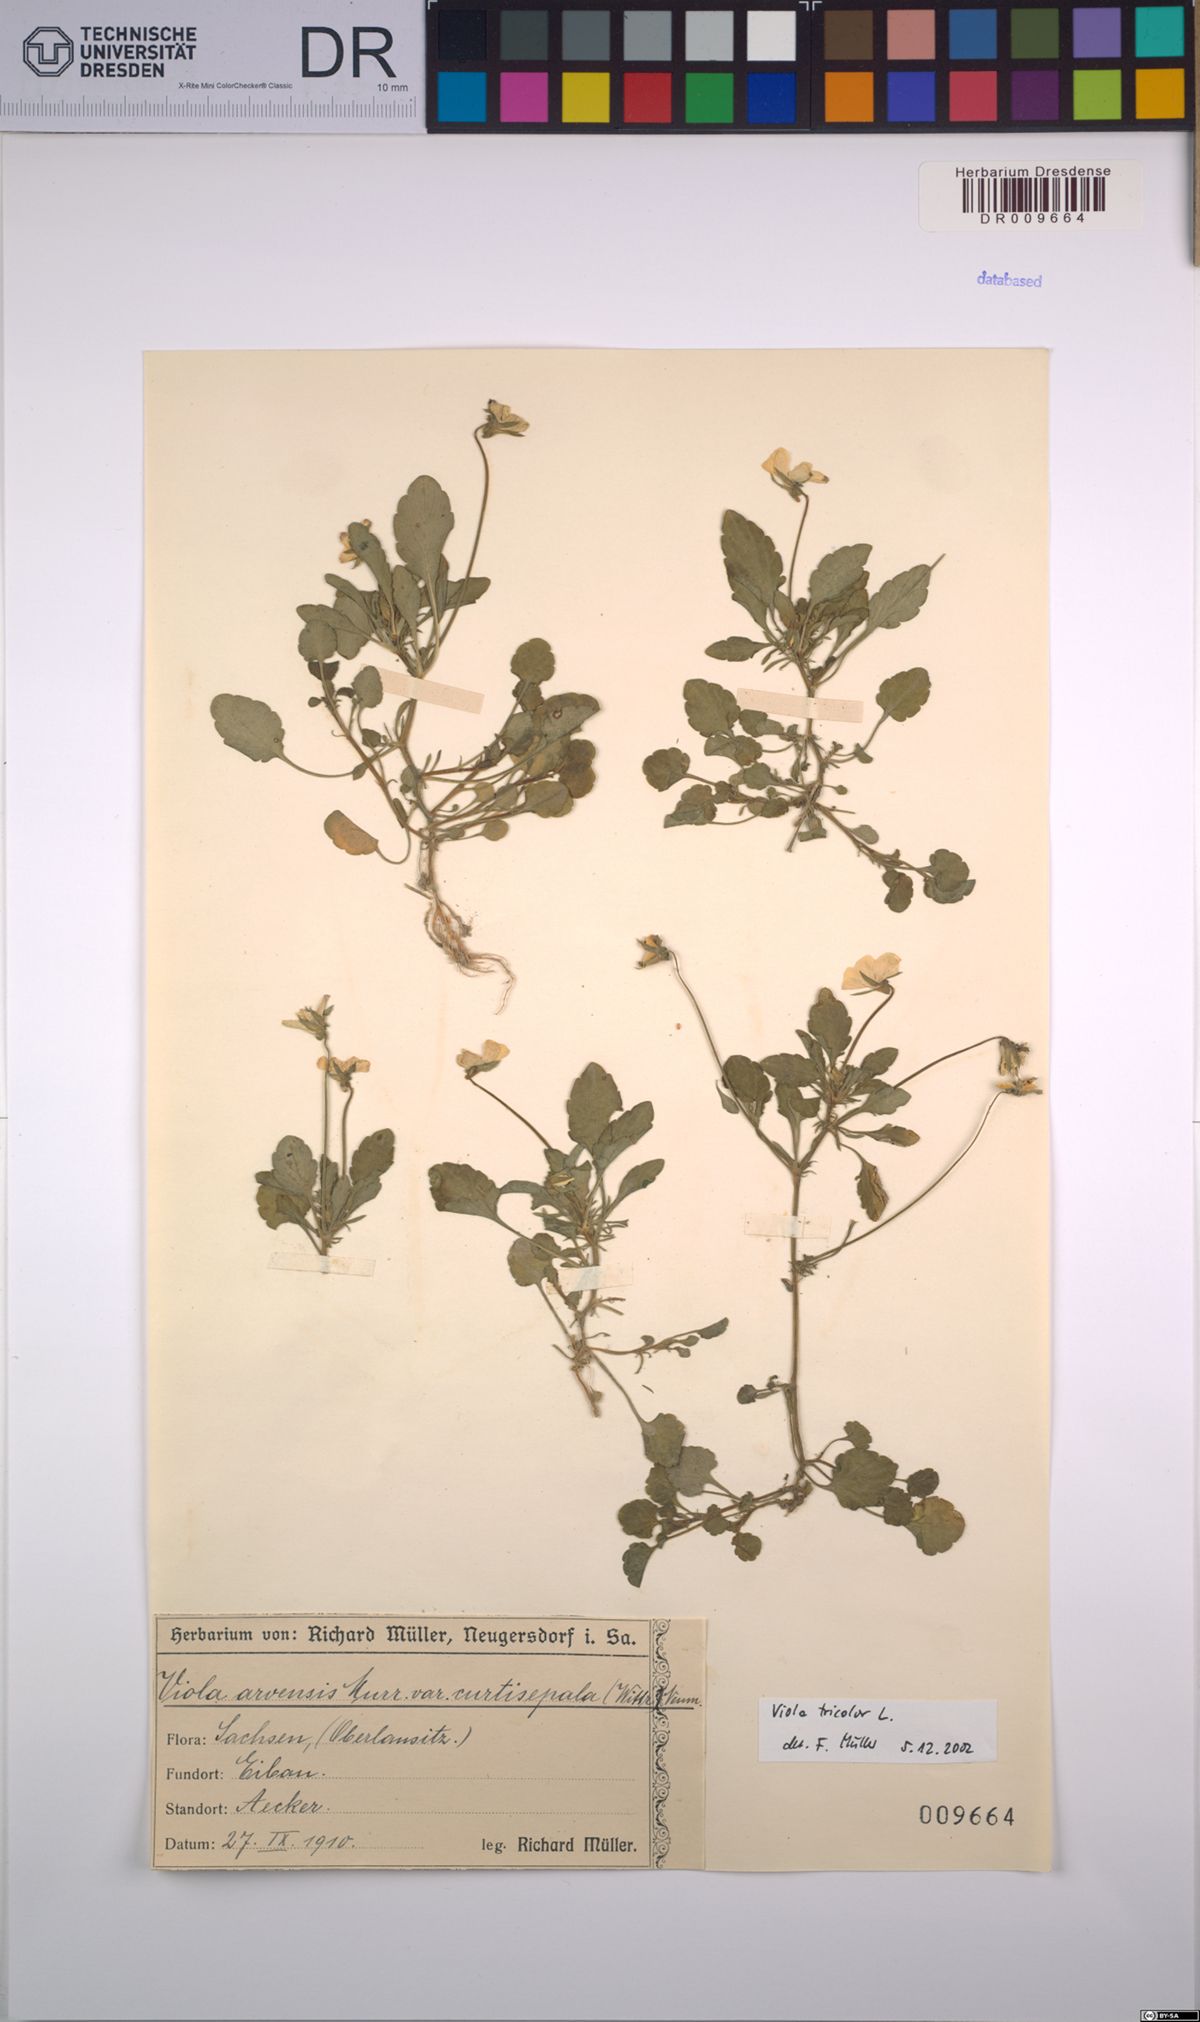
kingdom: Plantae
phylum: Tracheophyta
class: Magnoliopsida
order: Malpighiales
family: Violaceae
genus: Viola
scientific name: Viola tricolor
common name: Pansy
